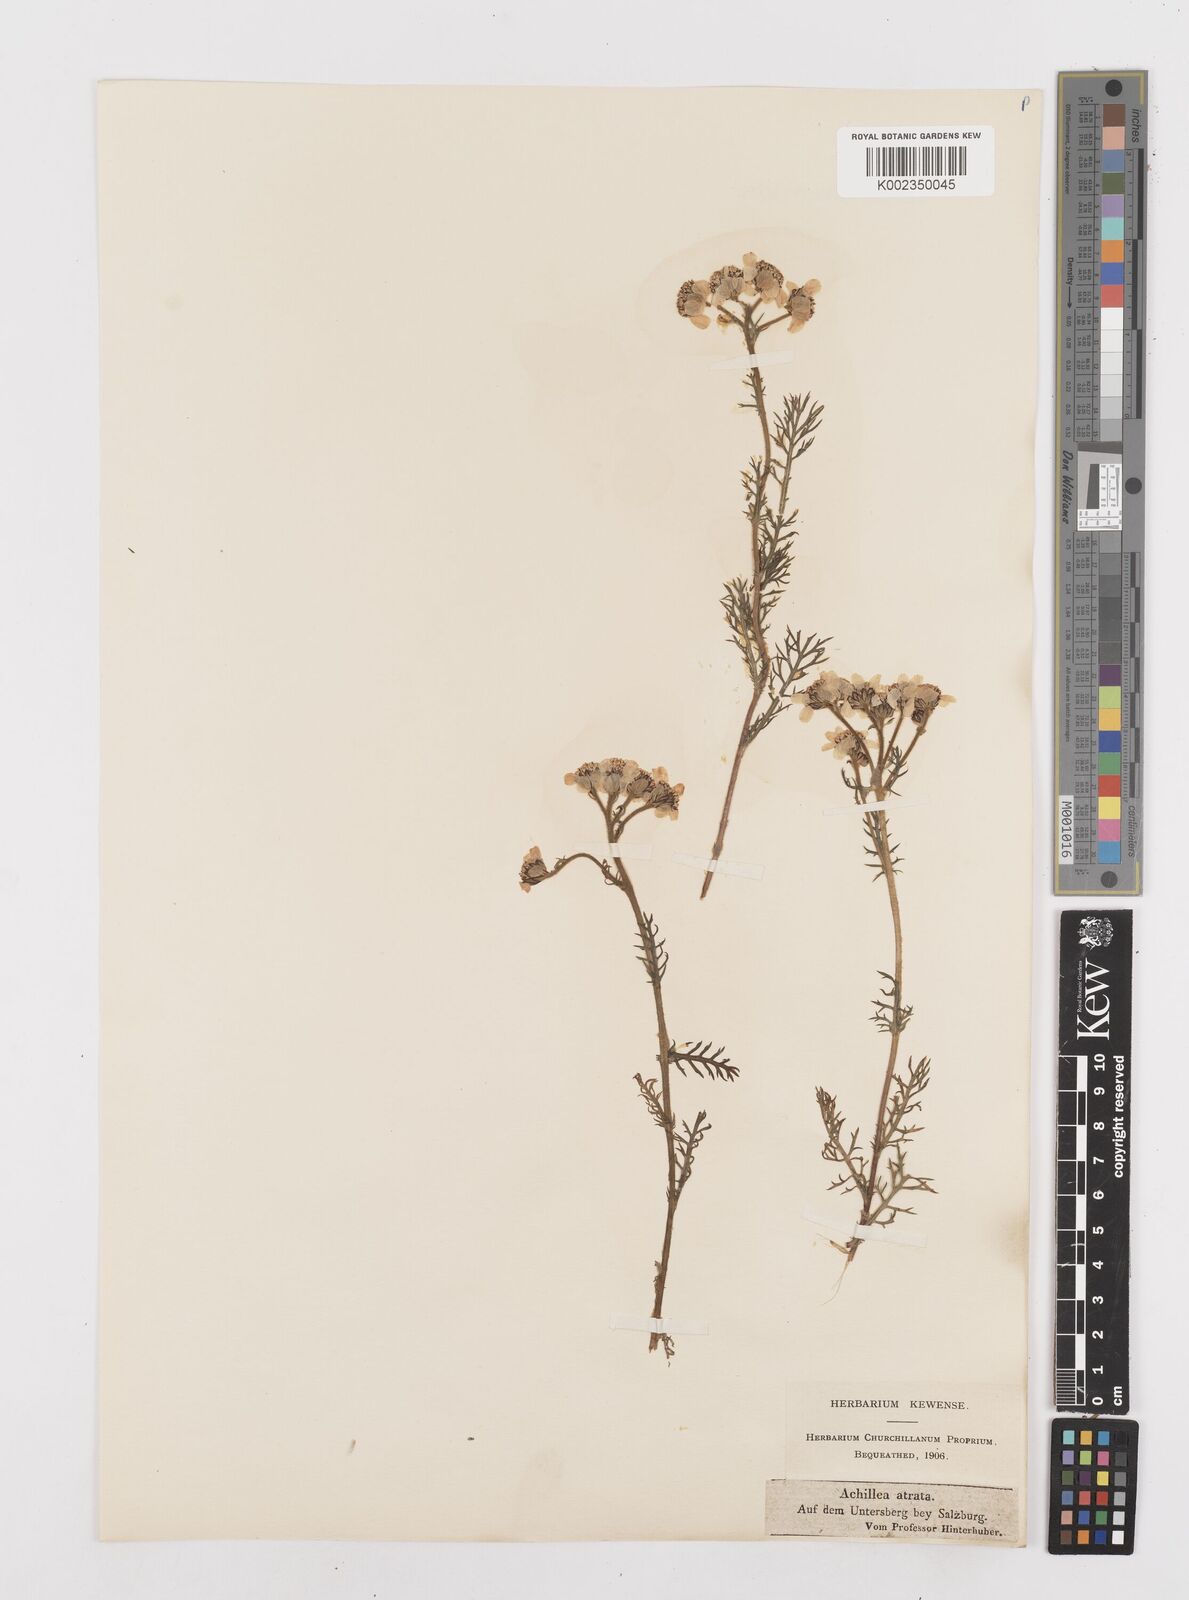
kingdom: Plantae
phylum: Tracheophyta
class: Magnoliopsida
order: Asterales
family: Asteraceae
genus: Achillea
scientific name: Achillea atrata
